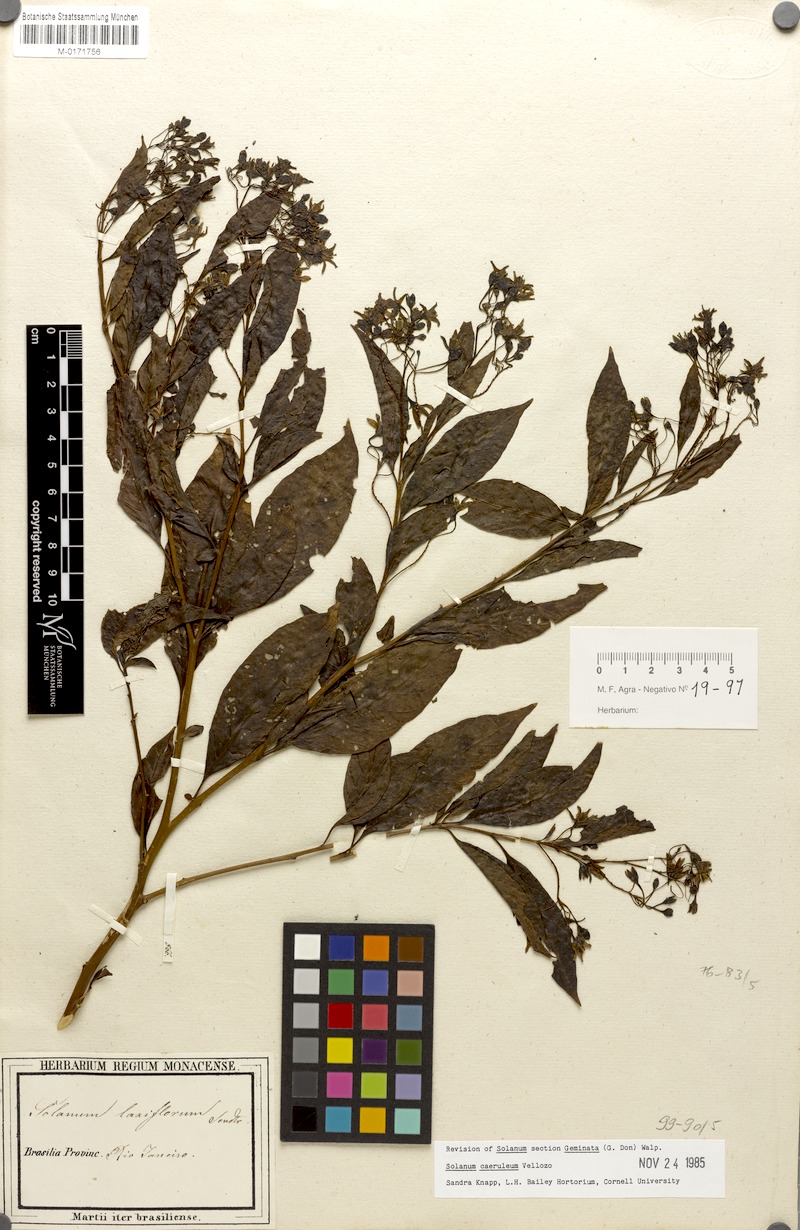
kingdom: Plantae
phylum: Tracheophyta
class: Magnoliopsida
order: Solanales
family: Solanaceae
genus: Solanum
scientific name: Solanum campaniforme
